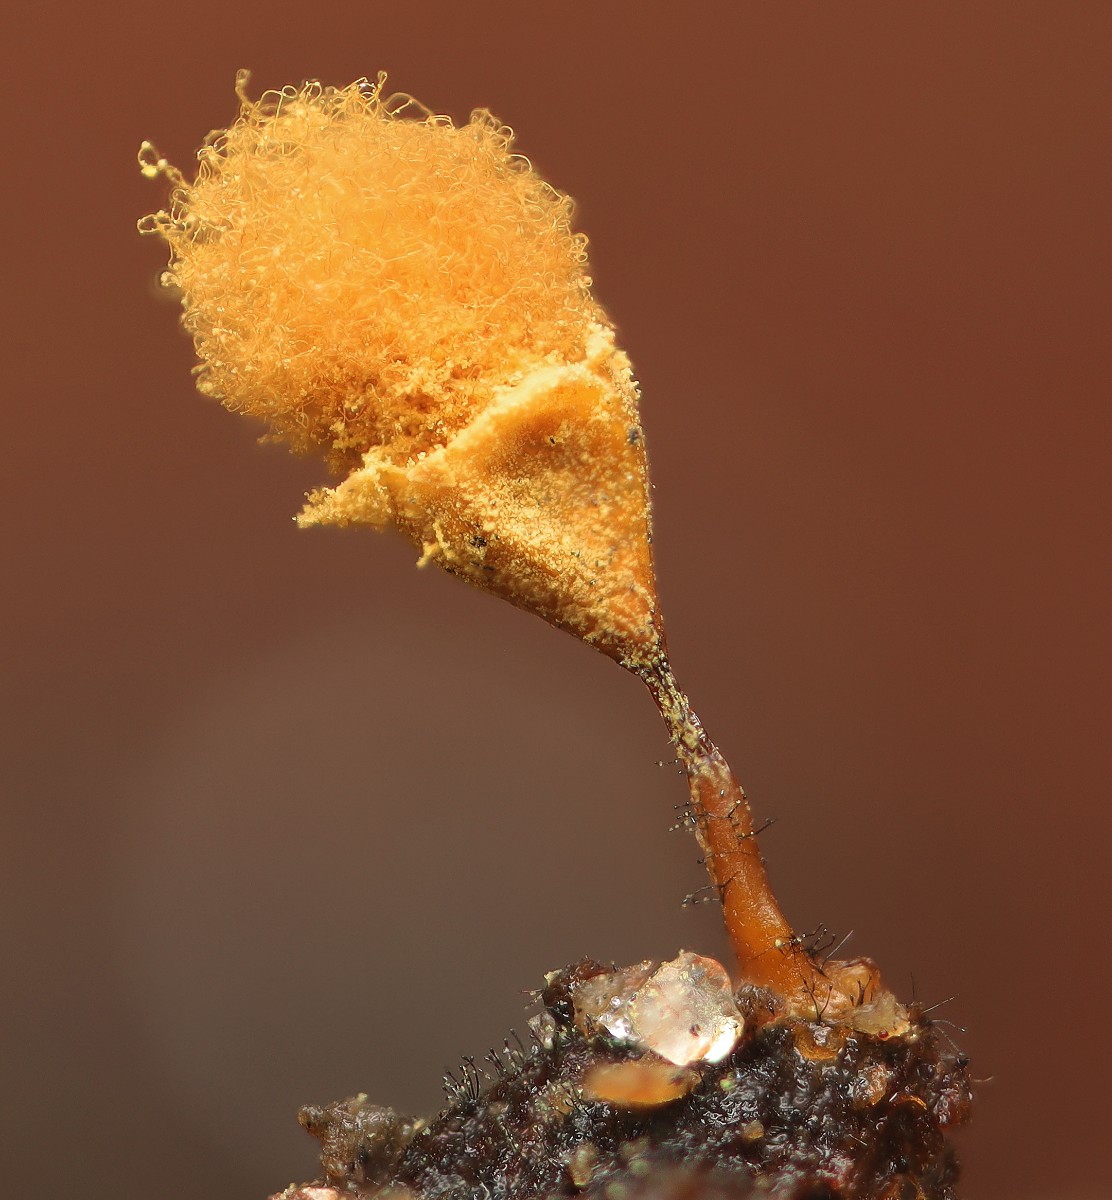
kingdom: Fungi
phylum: Ascomycota
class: Sordariomycetes
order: Boliniales
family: Boliniaceae
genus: Ceratostomella
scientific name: Ceratostomella fuscolutea
